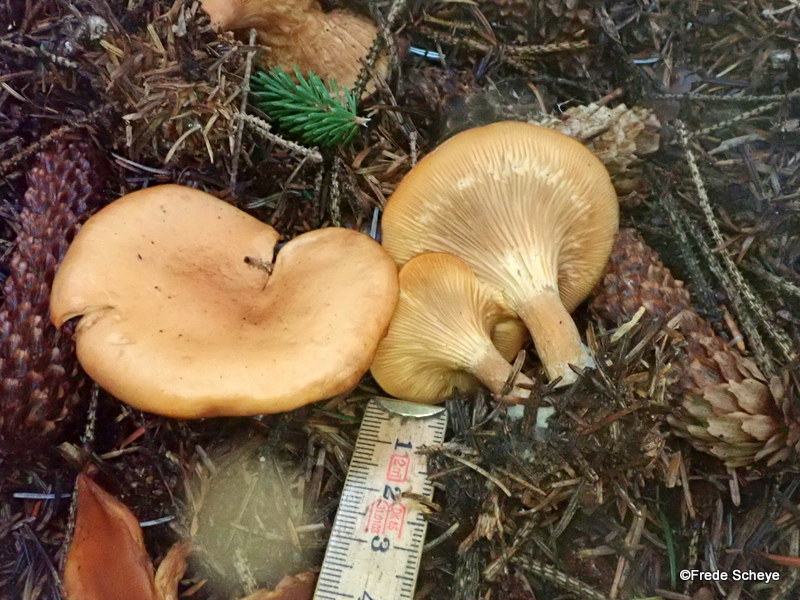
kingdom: Fungi
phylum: Basidiomycota
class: Agaricomycetes
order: Agaricales
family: Tricholomataceae
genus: Paralepista
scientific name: Paralepista flaccida
